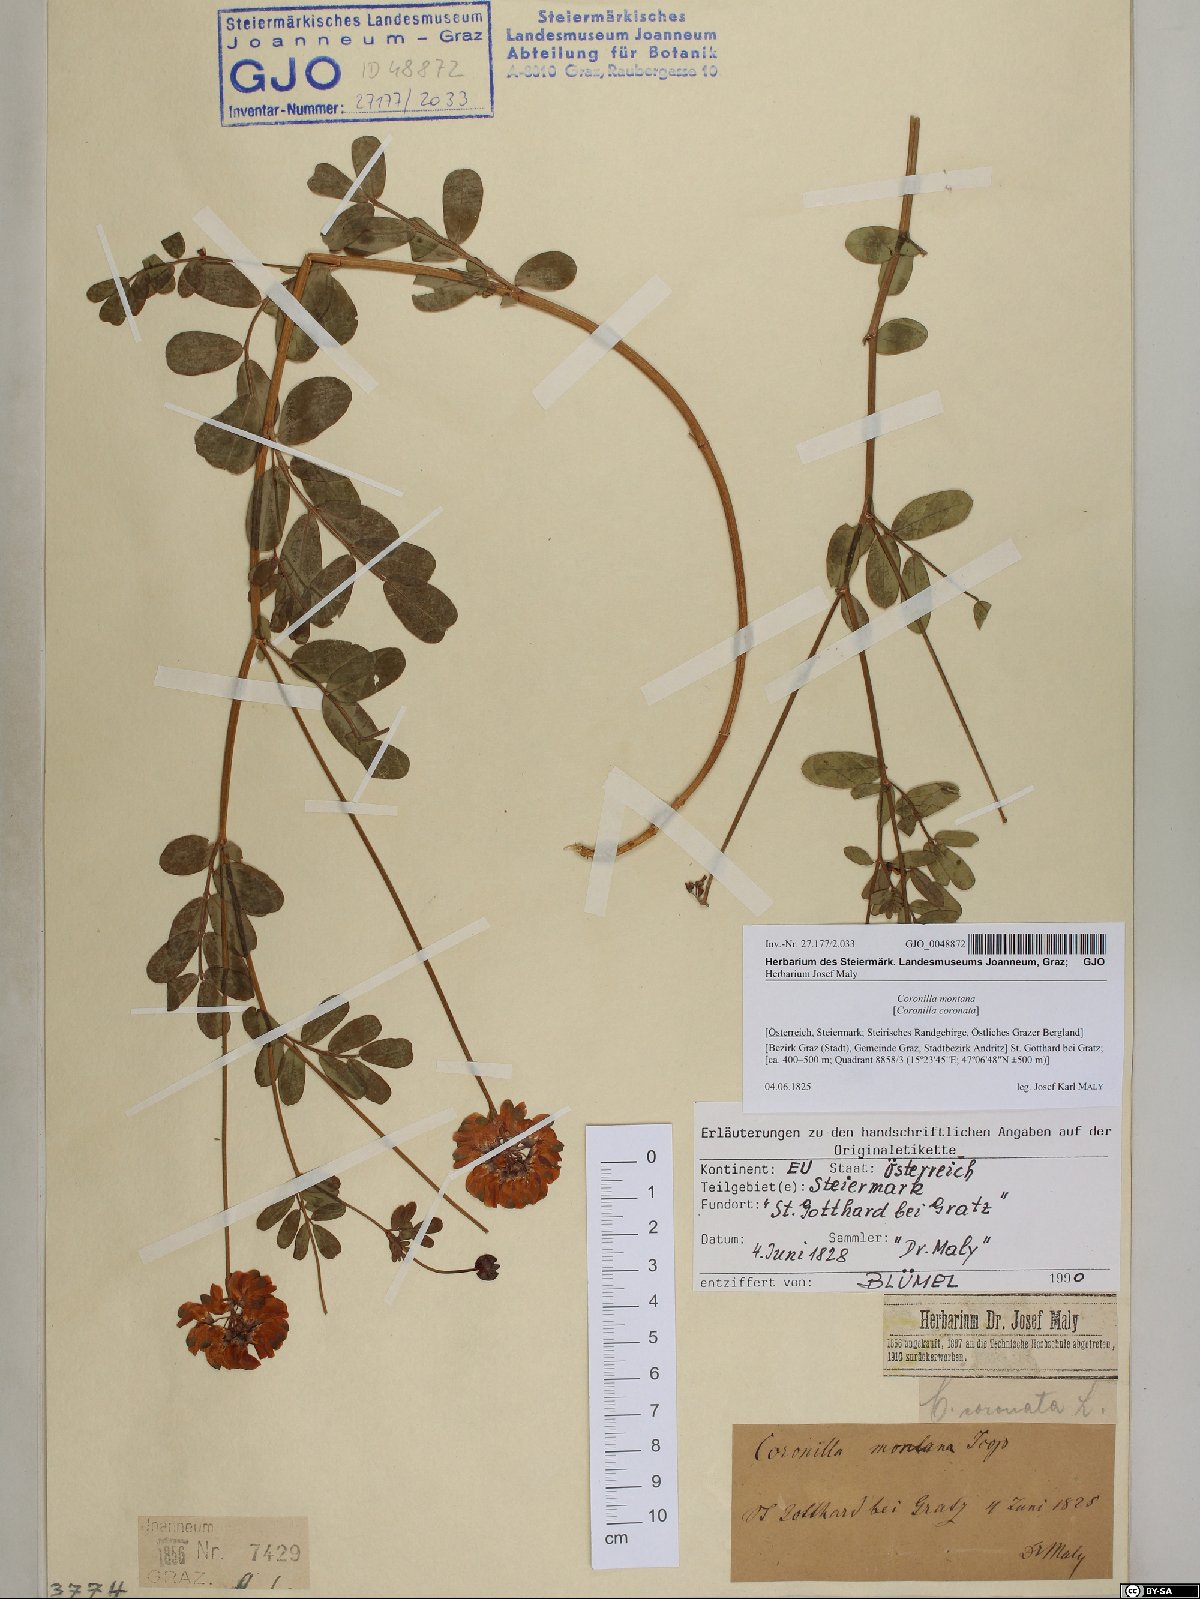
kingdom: Plantae
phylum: Tracheophyta
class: Magnoliopsida
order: Fabales
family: Fabaceae
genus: Coronilla
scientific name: Coronilla coronata
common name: Scorpion-vetch
